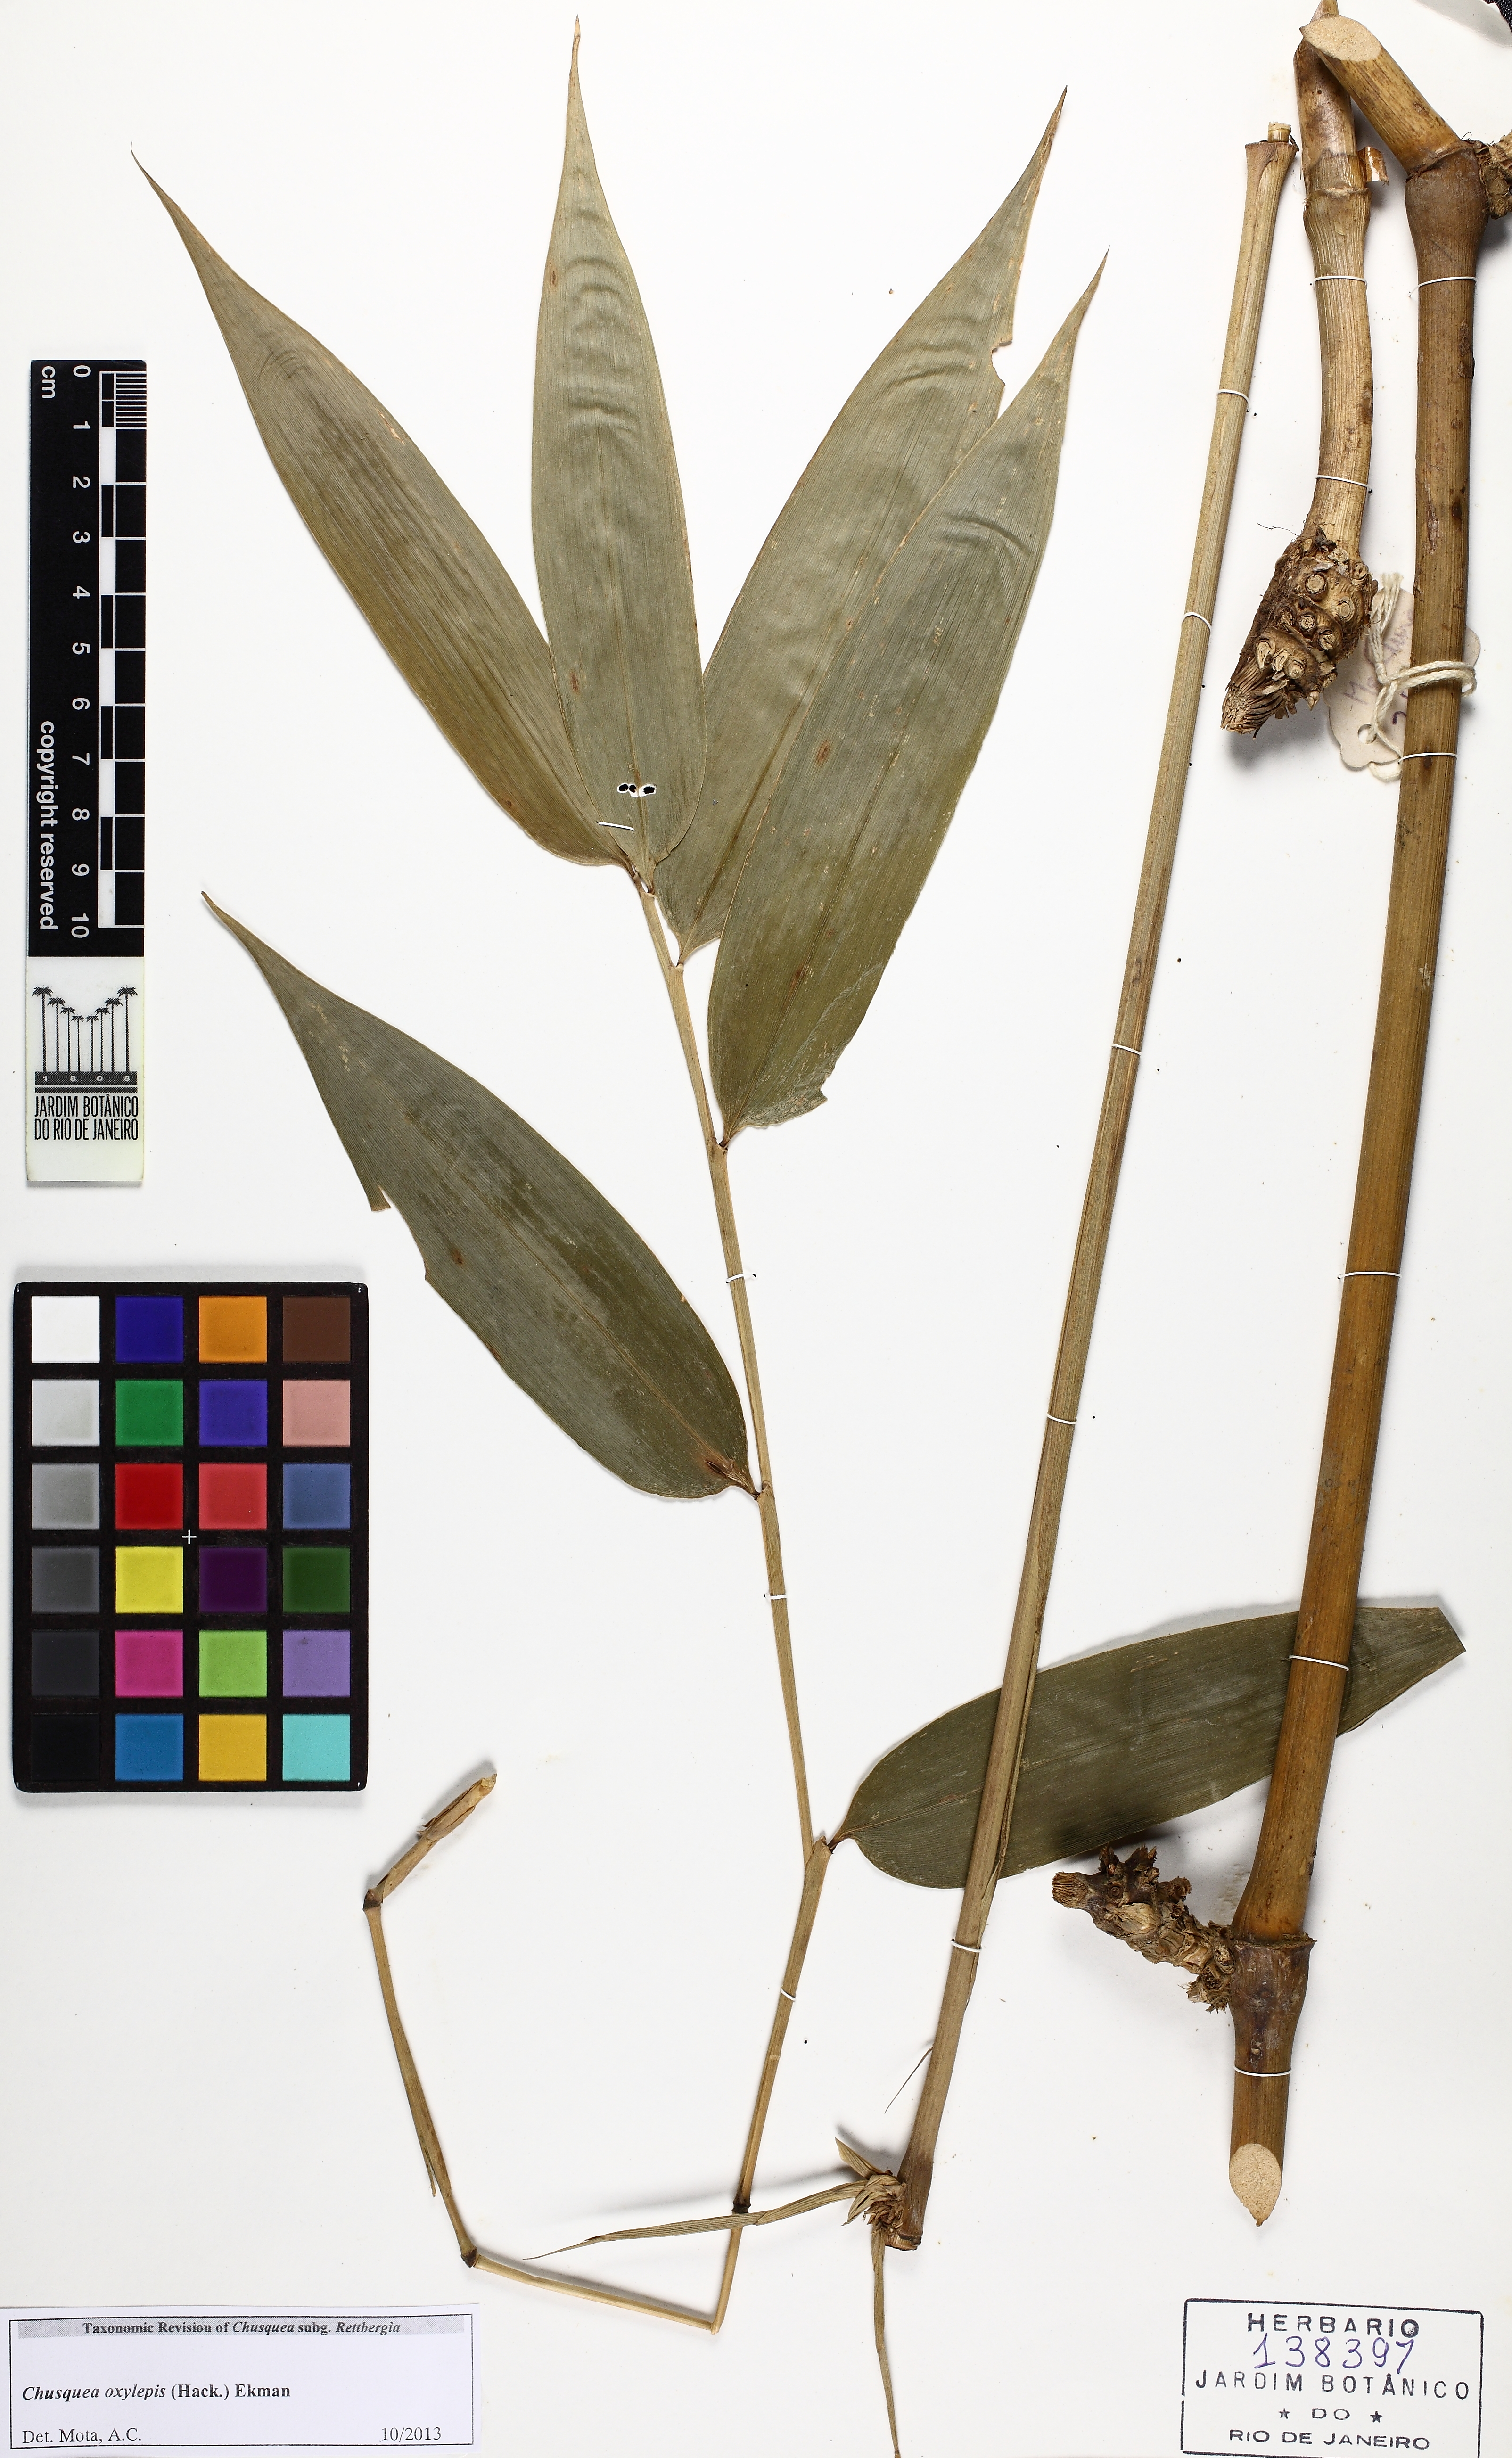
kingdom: Plantae
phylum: Tracheophyta
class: Liliopsida
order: Poales
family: Poaceae
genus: Chusquea
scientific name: Chusquea oxylepis
